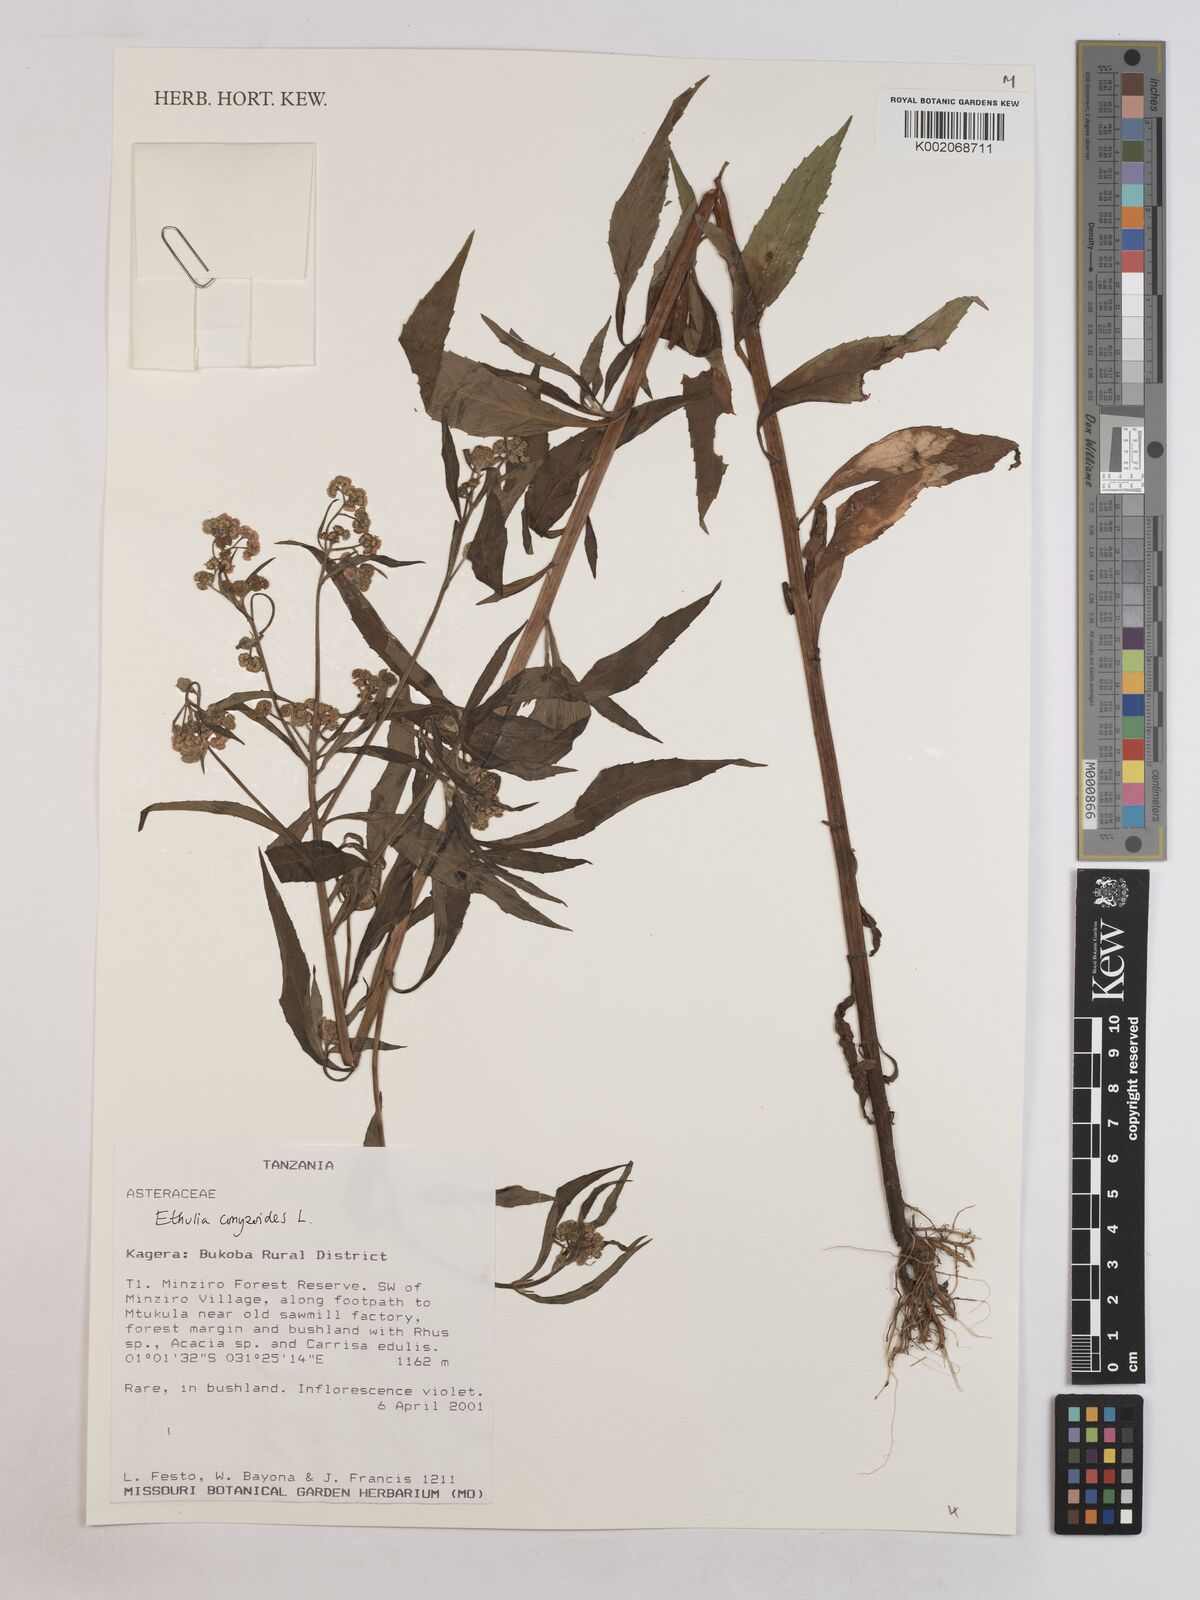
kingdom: Plantae
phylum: Tracheophyta
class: Magnoliopsida
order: Asterales
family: Asteraceae
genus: Ethulia
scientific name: Ethulia
